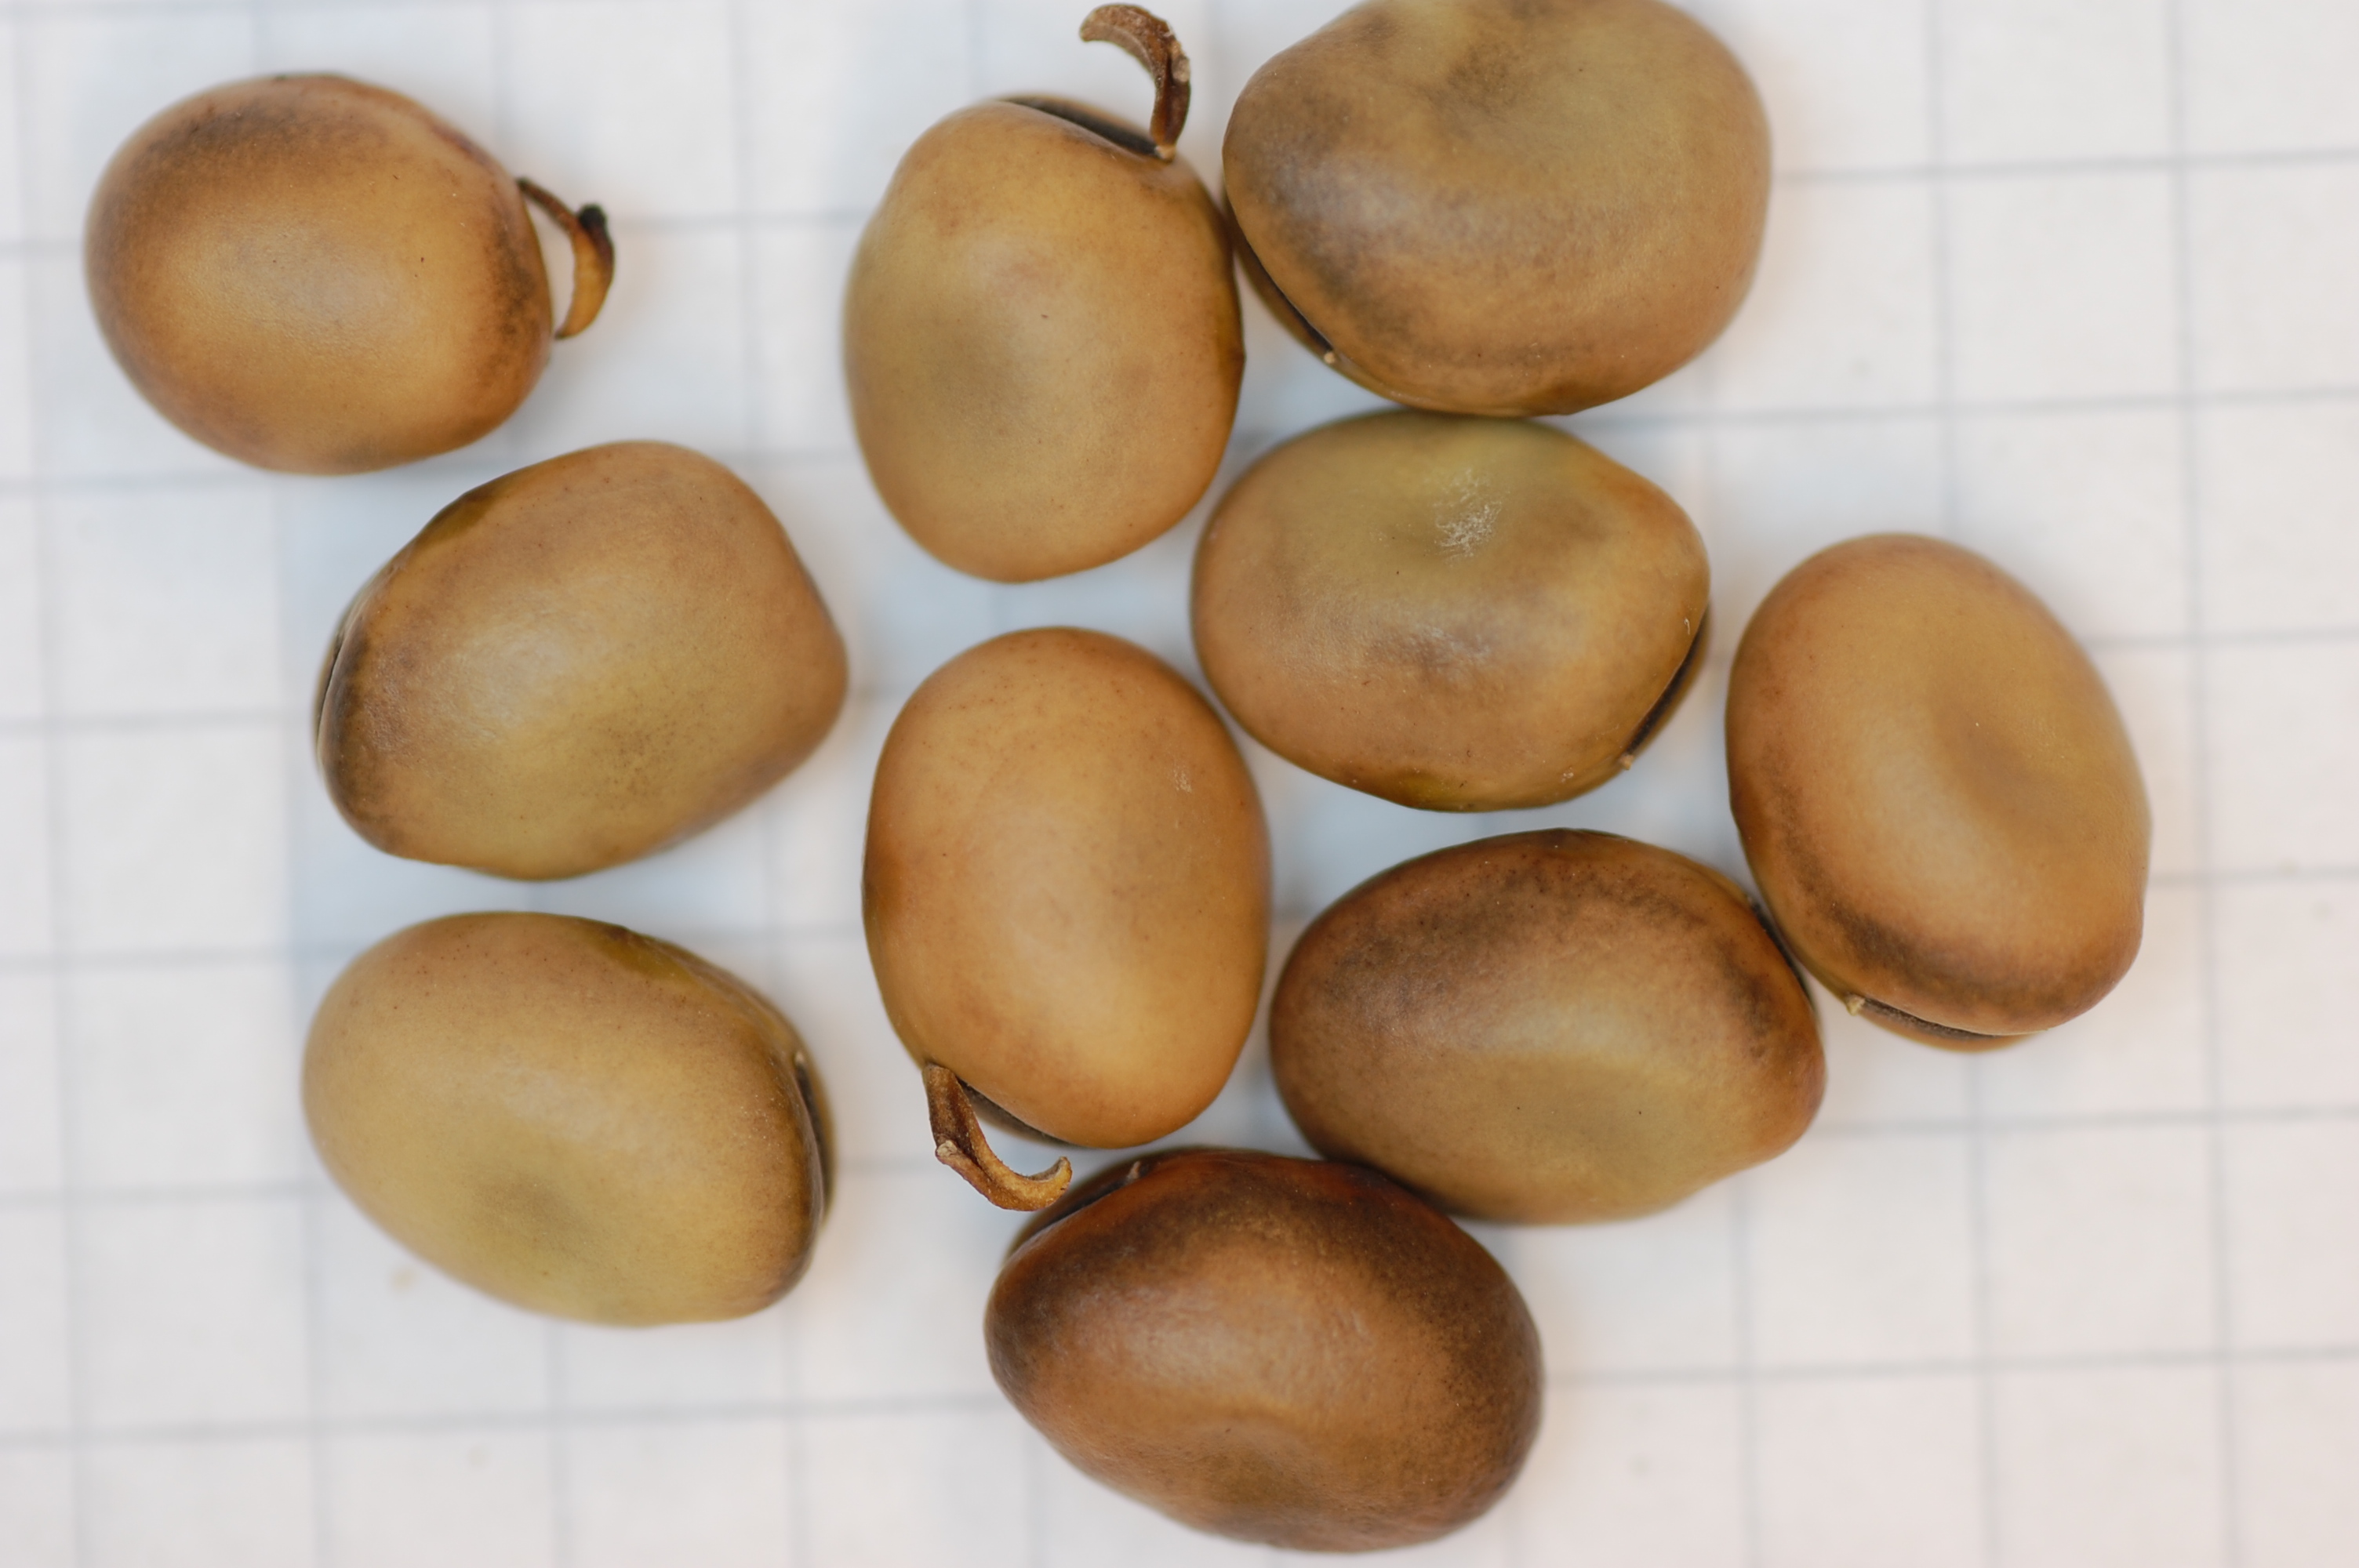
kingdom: Plantae
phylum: Tracheophyta
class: Magnoliopsida
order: Fabales
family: Fabaceae
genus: Vicia
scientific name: Vicia faba
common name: Broad bean
